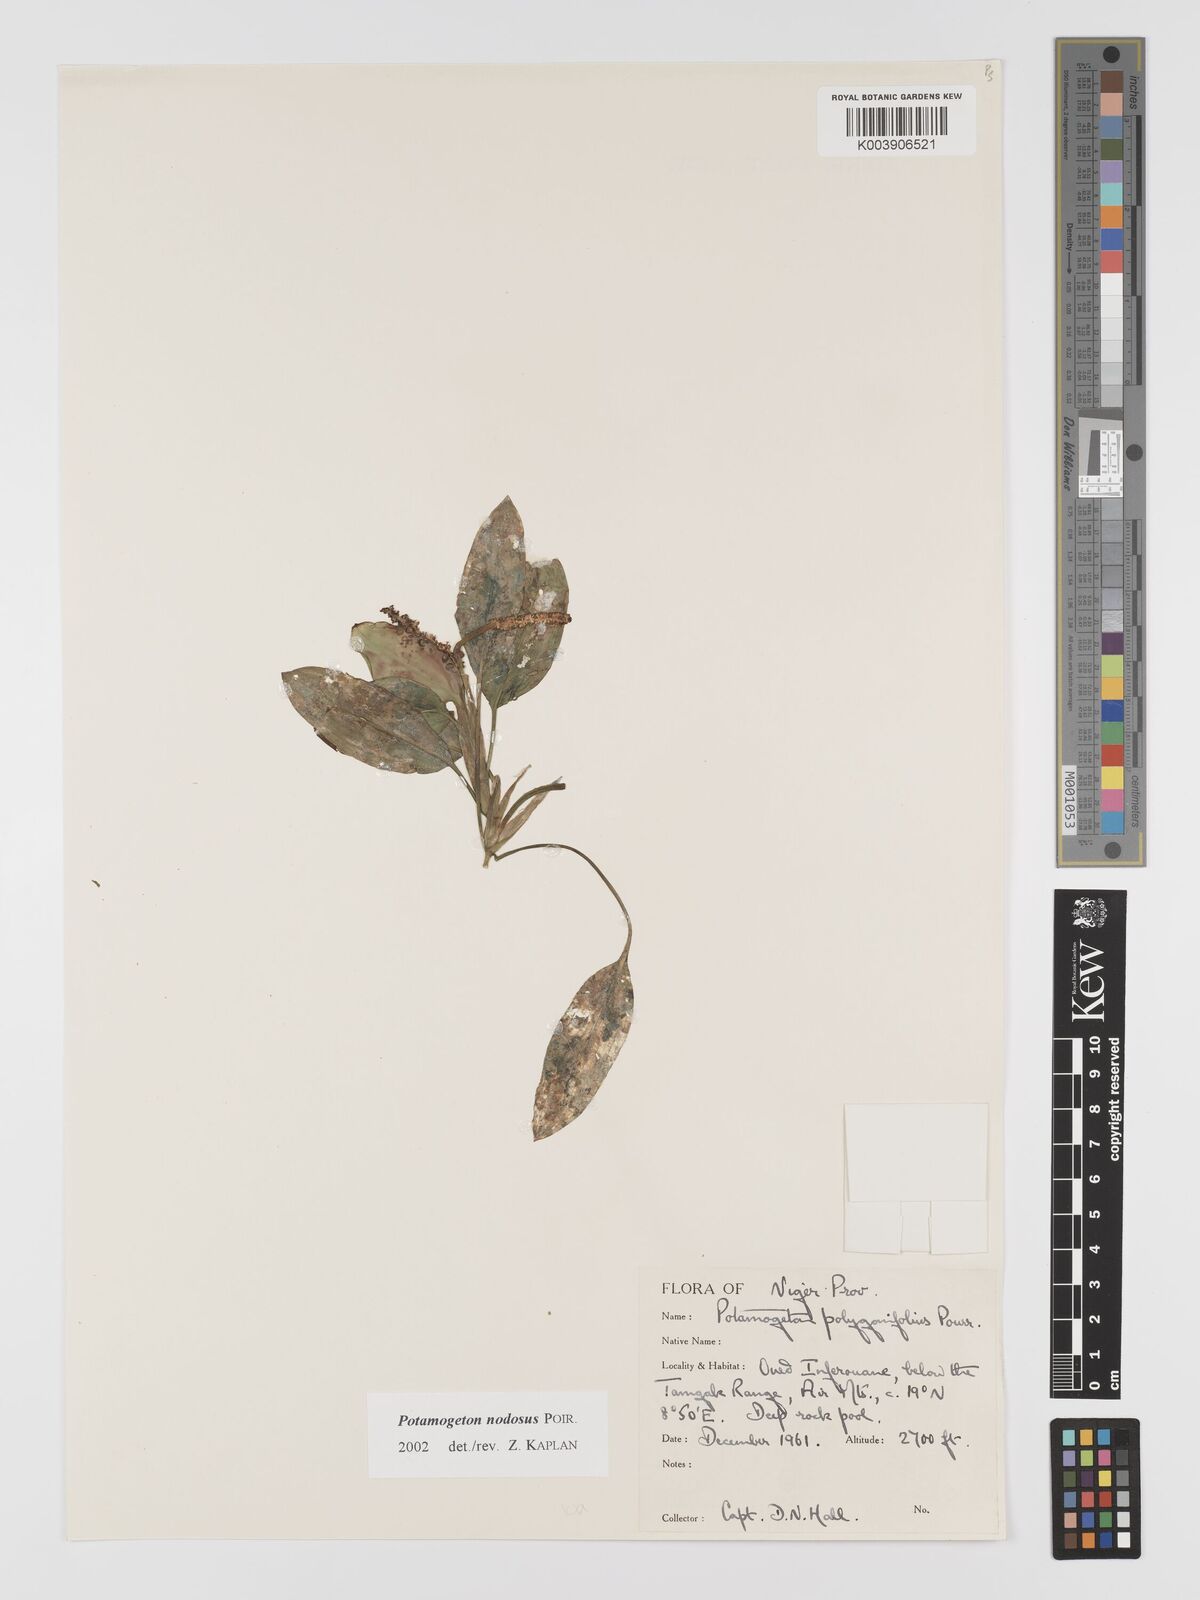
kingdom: Plantae
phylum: Tracheophyta
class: Liliopsida
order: Alismatales
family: Potamogetonaceae
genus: Potamogeton
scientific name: Potamogeton nodosus
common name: Loddon pondweed
